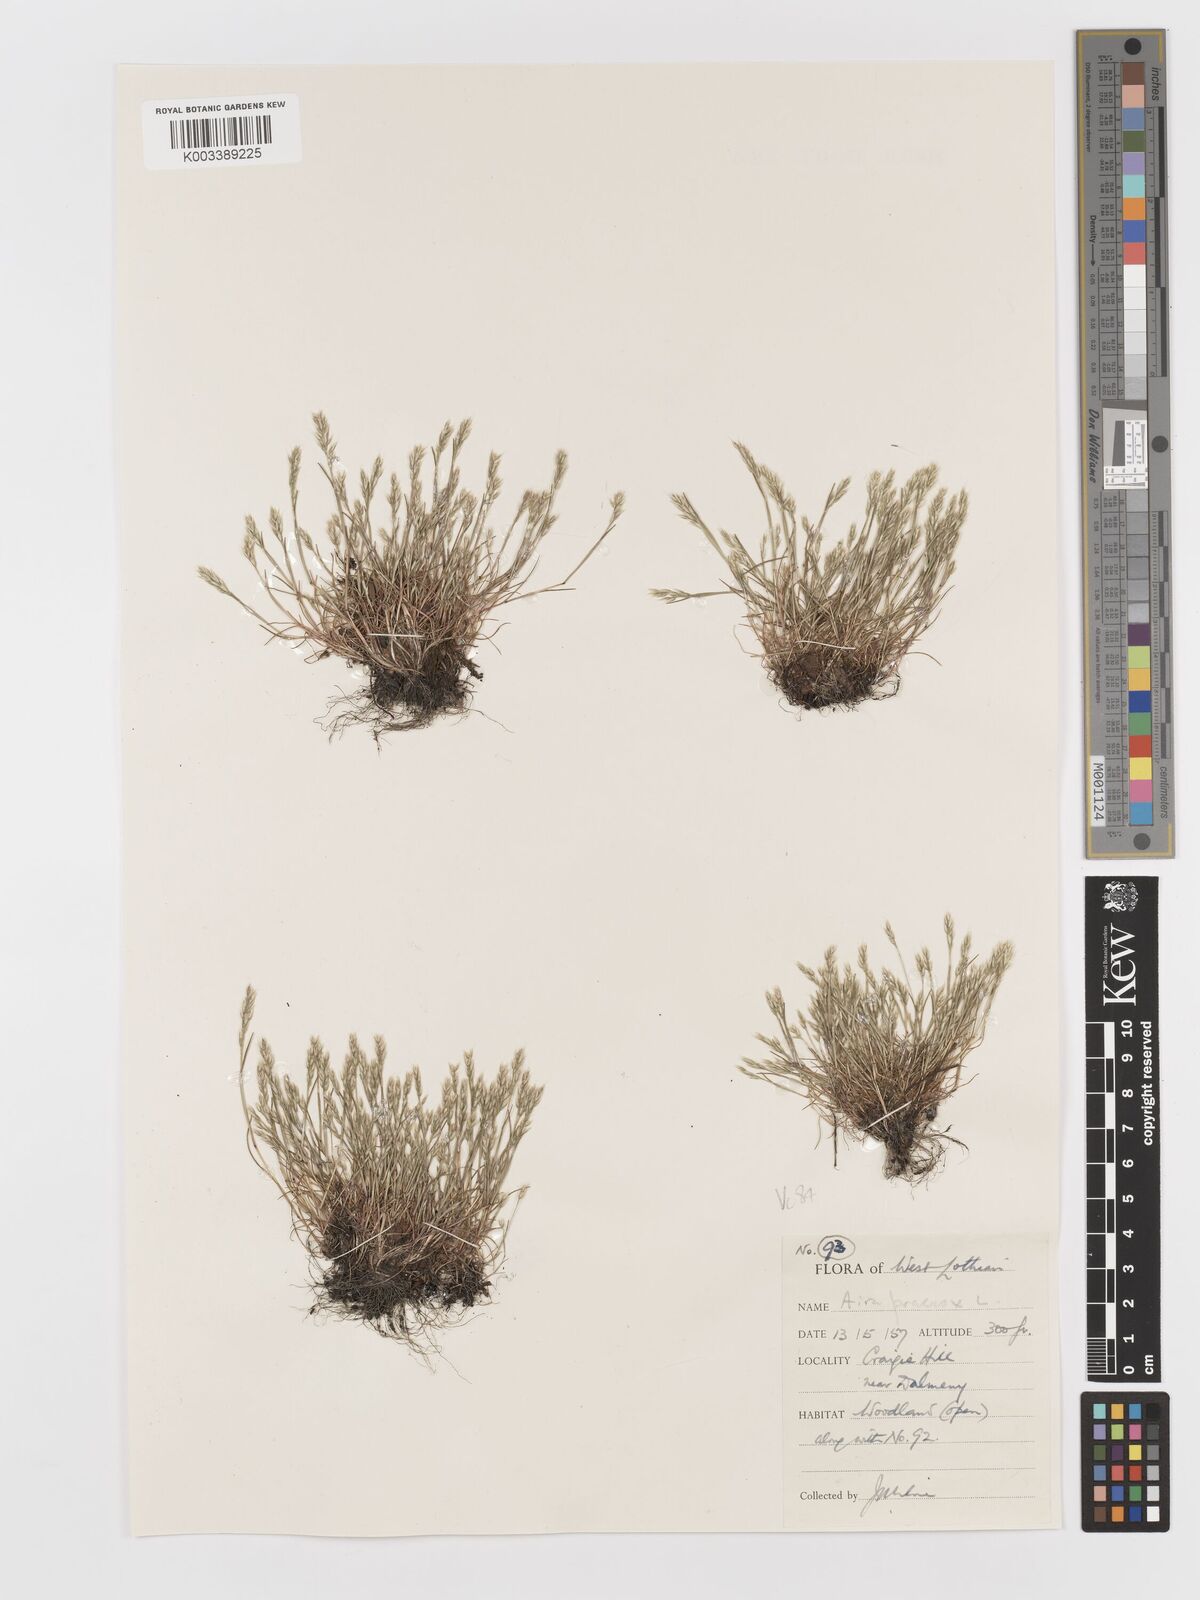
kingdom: Plantae
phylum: Tracheophyta
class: Liliopsida
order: Poales
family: Poaceae
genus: Aira
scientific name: Aira praecox
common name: Early hair-grass
